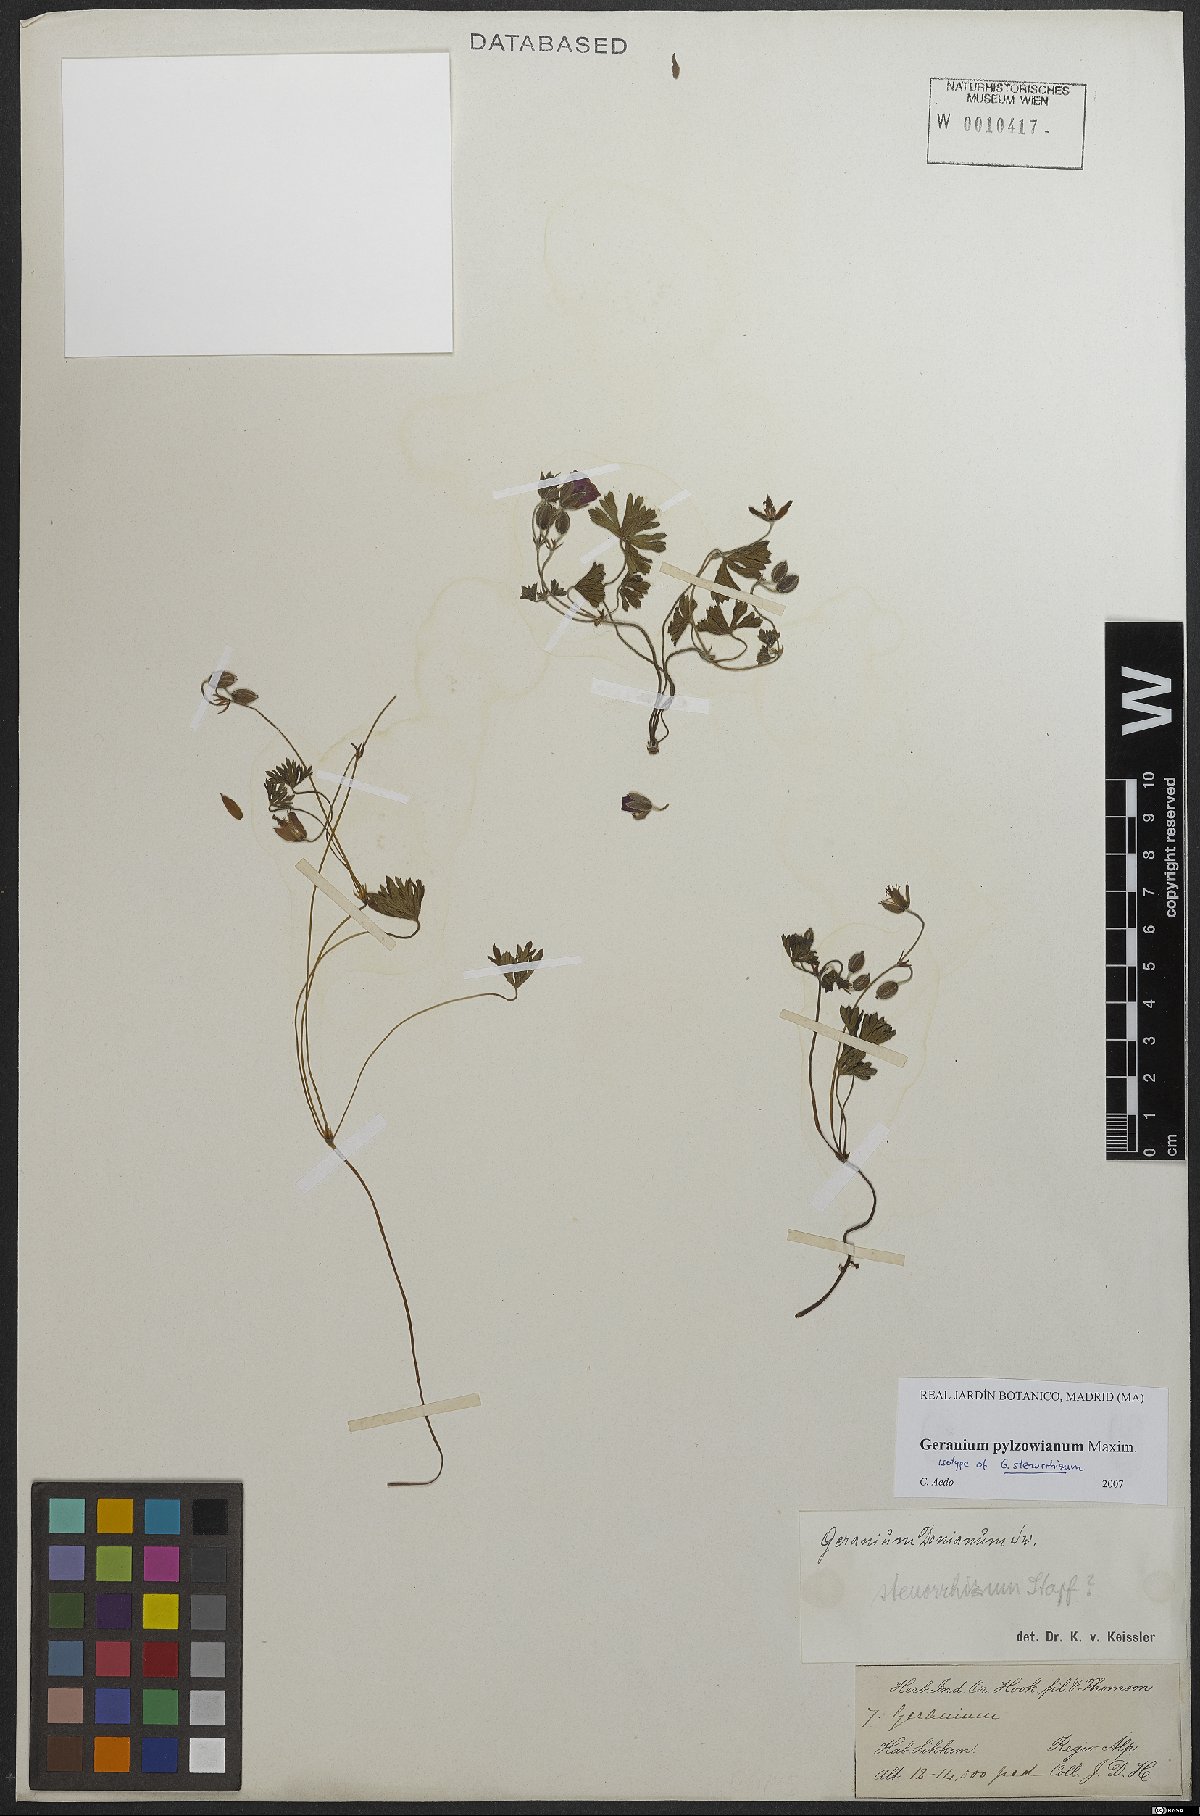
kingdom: Plantae
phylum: Tracheophyta
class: Magnoliopsida
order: Geraniales
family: Geraniaceae
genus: Geranium
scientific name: Geranium pylzowianum
